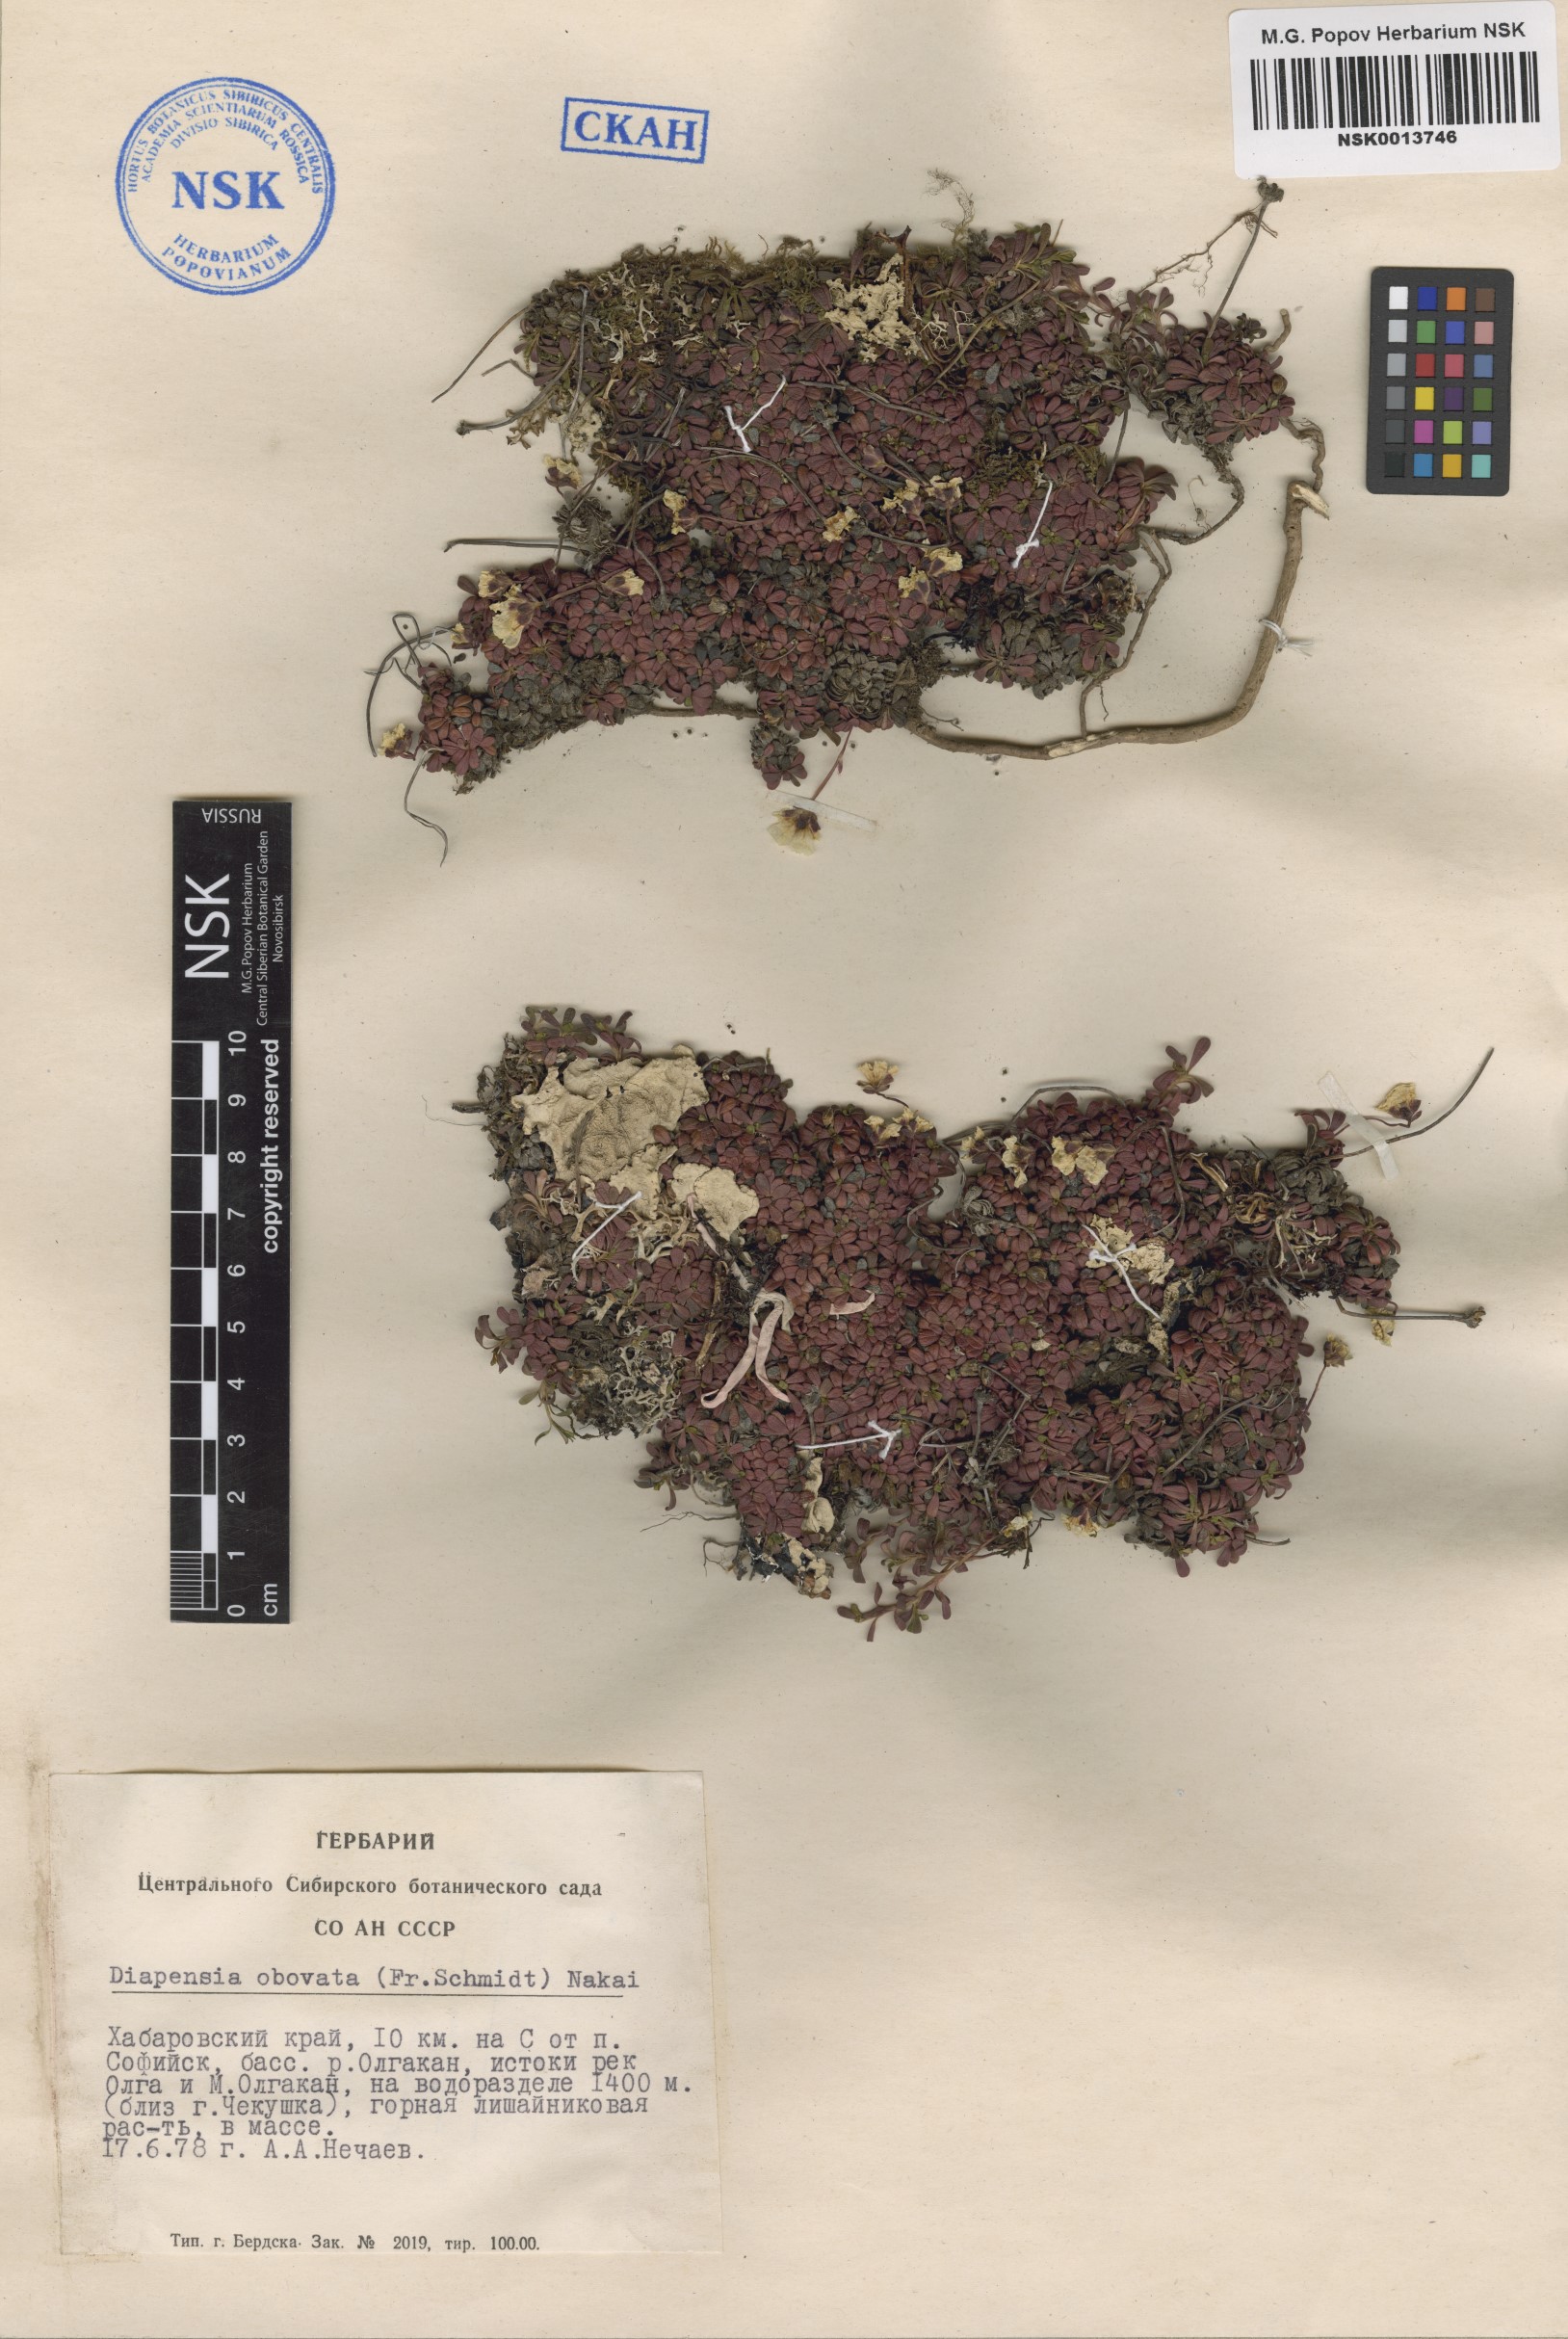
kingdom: Plantae
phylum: Tracheophyta
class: Magnoliopsida
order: Ericales
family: Diapensiaceae
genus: Diapensia
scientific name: Diapensia obovata
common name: Alaska diapensia
